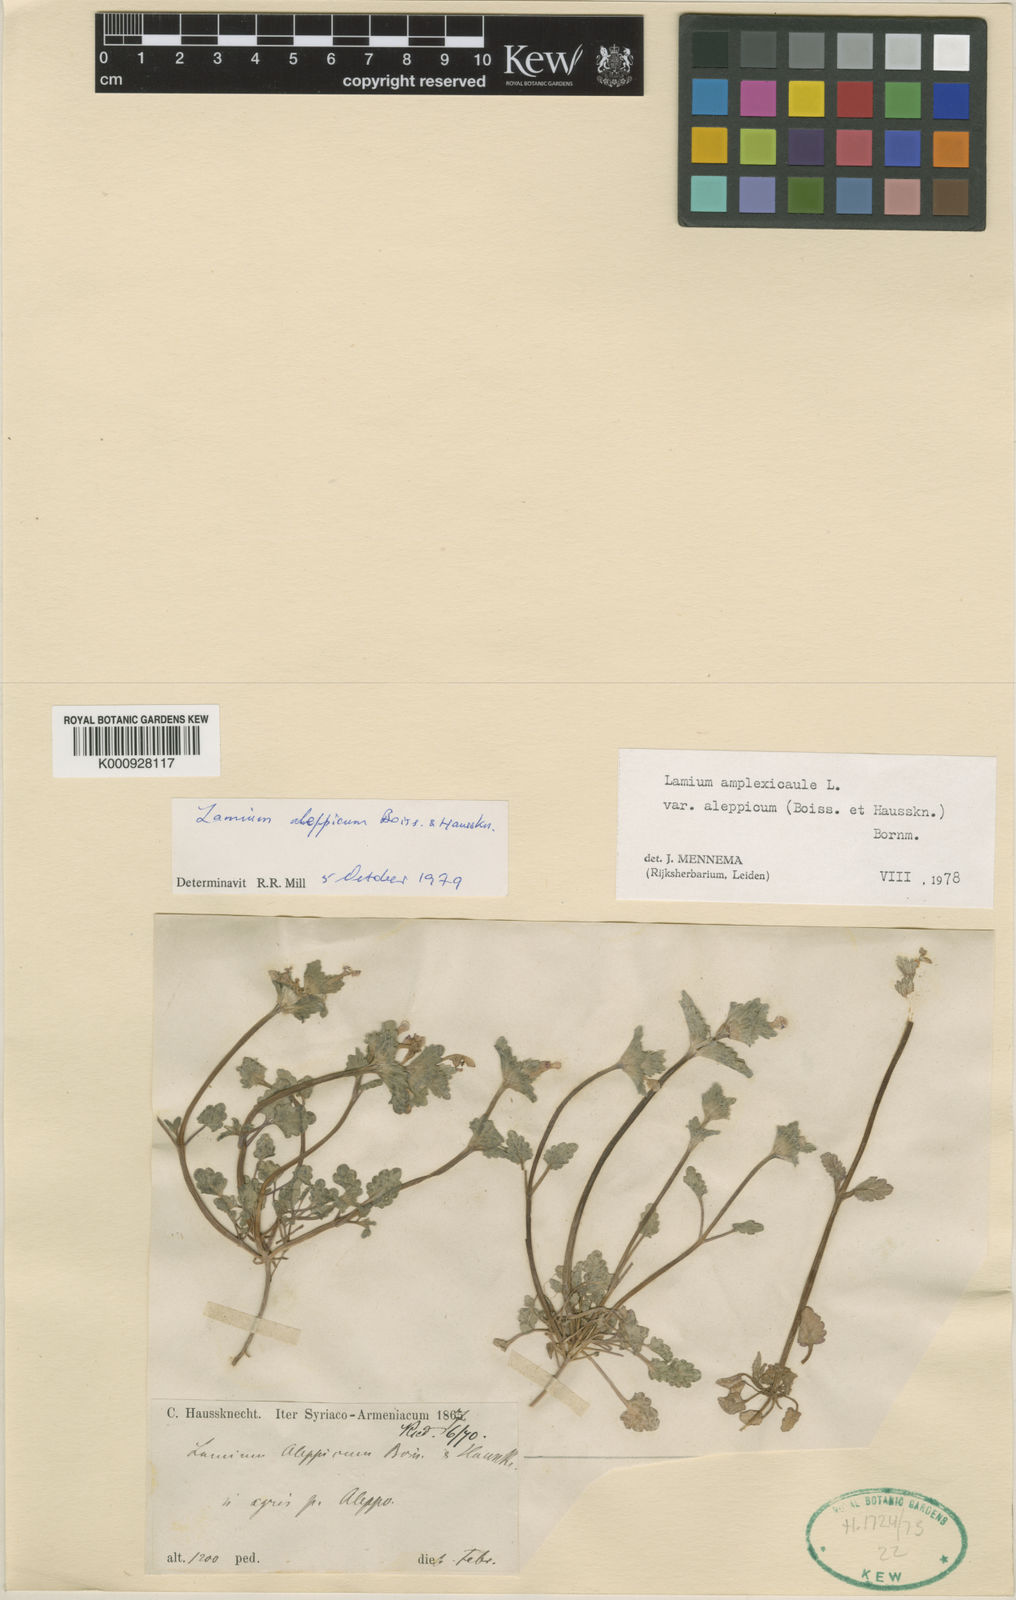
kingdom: Plantae
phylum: Tracheophyta
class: Magnoliopsida
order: Lamiales
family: Lamiaceae
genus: Lamium
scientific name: Lamium amplexicaule
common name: Henbit dead-nettle
